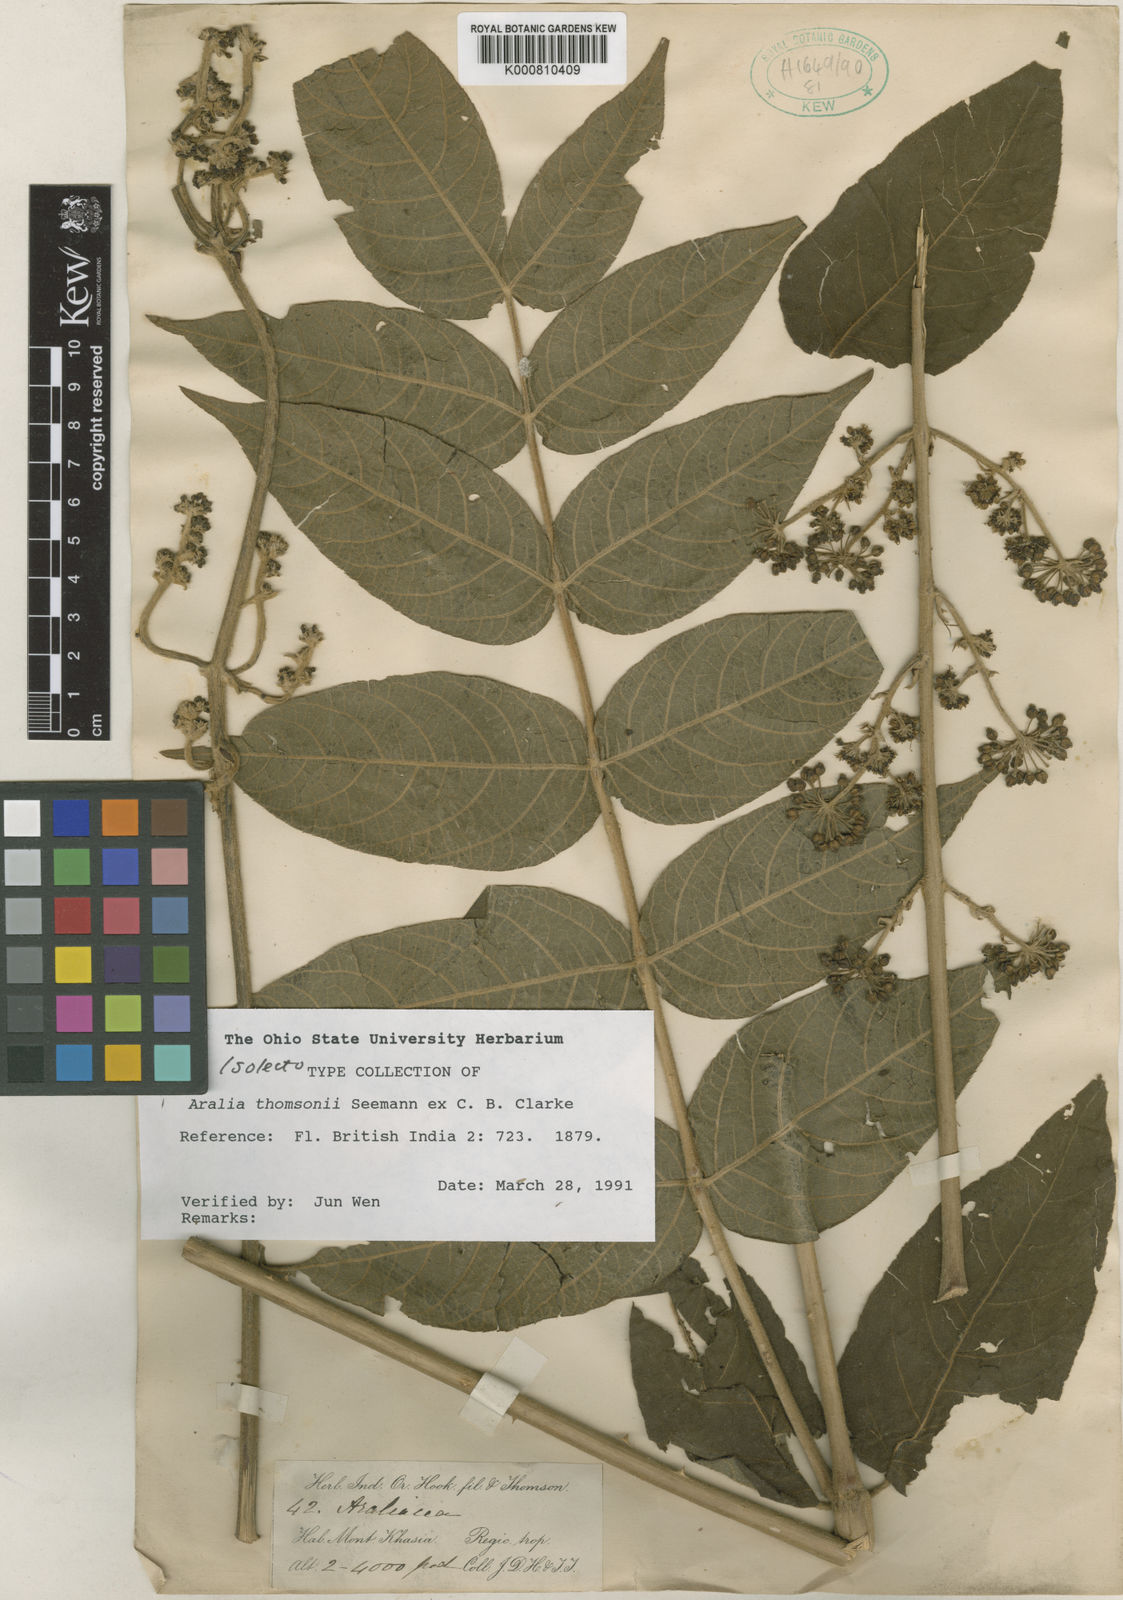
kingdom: Plantae
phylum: Tracheophyta
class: Magnoliopsida
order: Apiales
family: Araliaceae
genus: Aralia
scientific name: Aralia thomsonii
